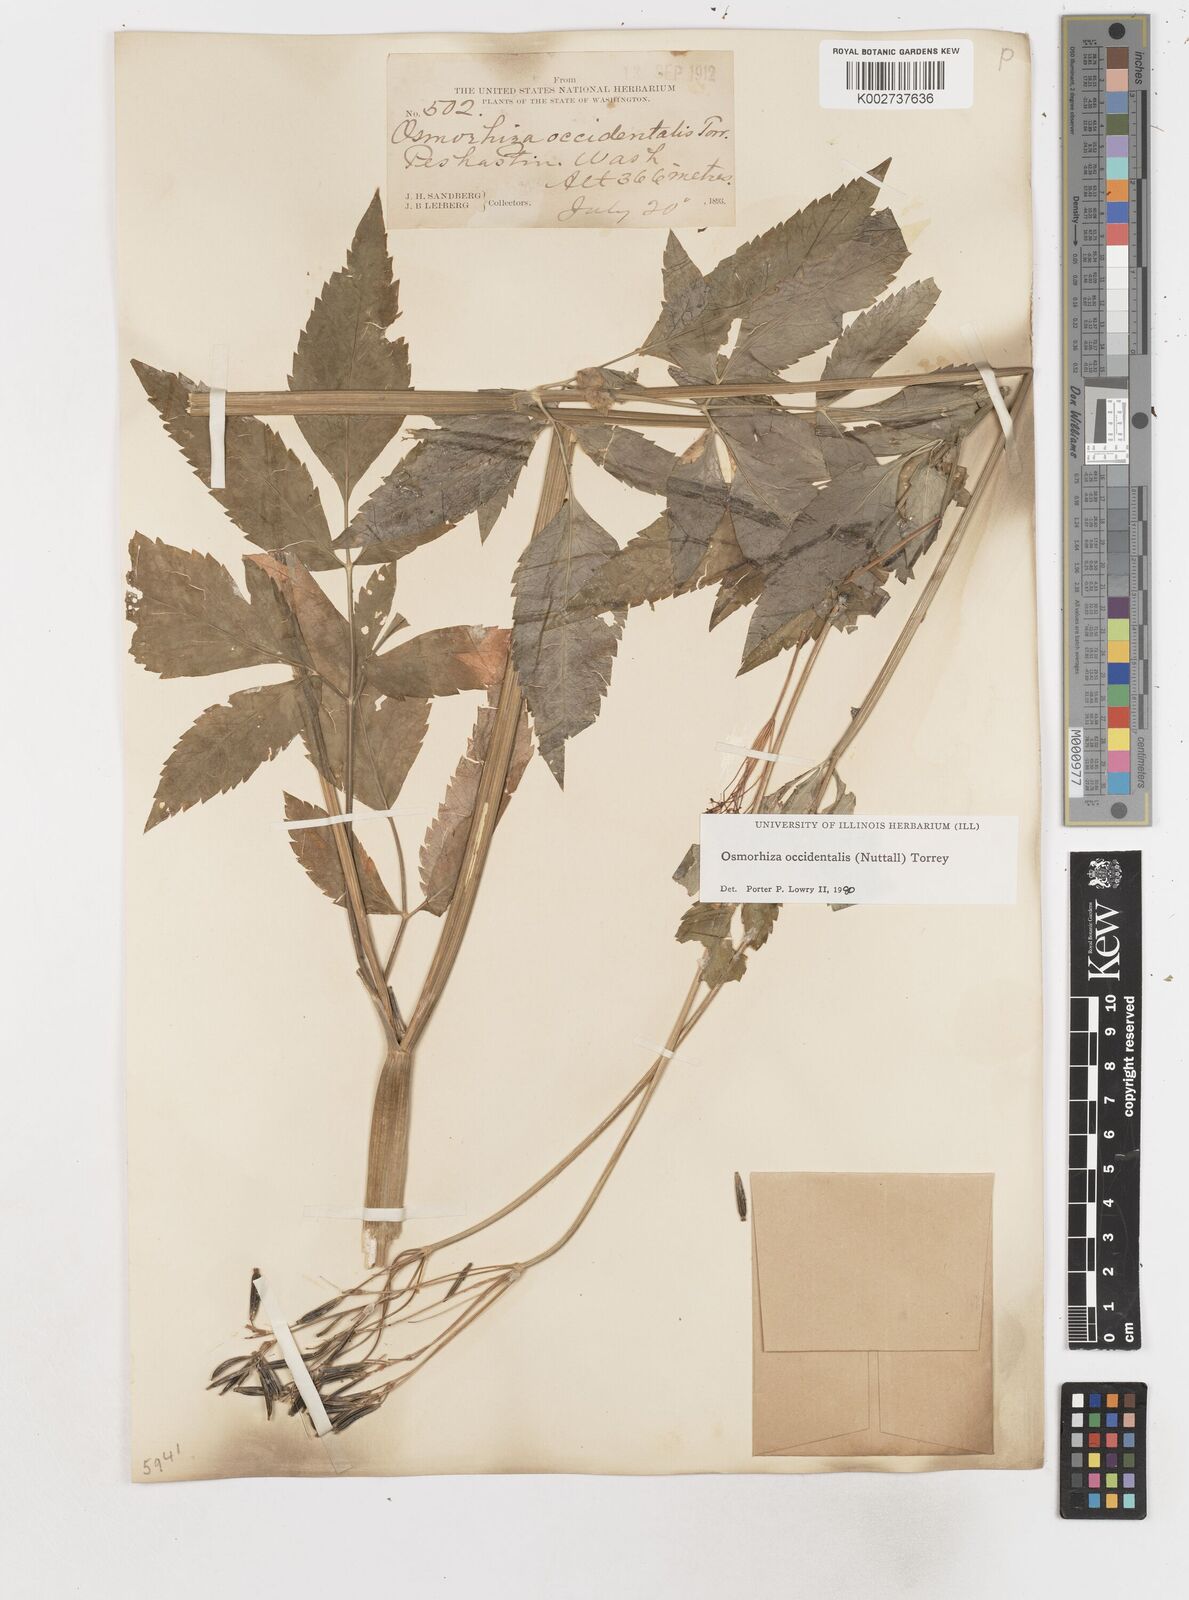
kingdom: Plantae
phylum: Tracheophyta
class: Magnoliopsida
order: Apiales
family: Apiaceae
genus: Osmorhiza
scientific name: Osmorhiza occidentalis
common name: Western sweet cicely
